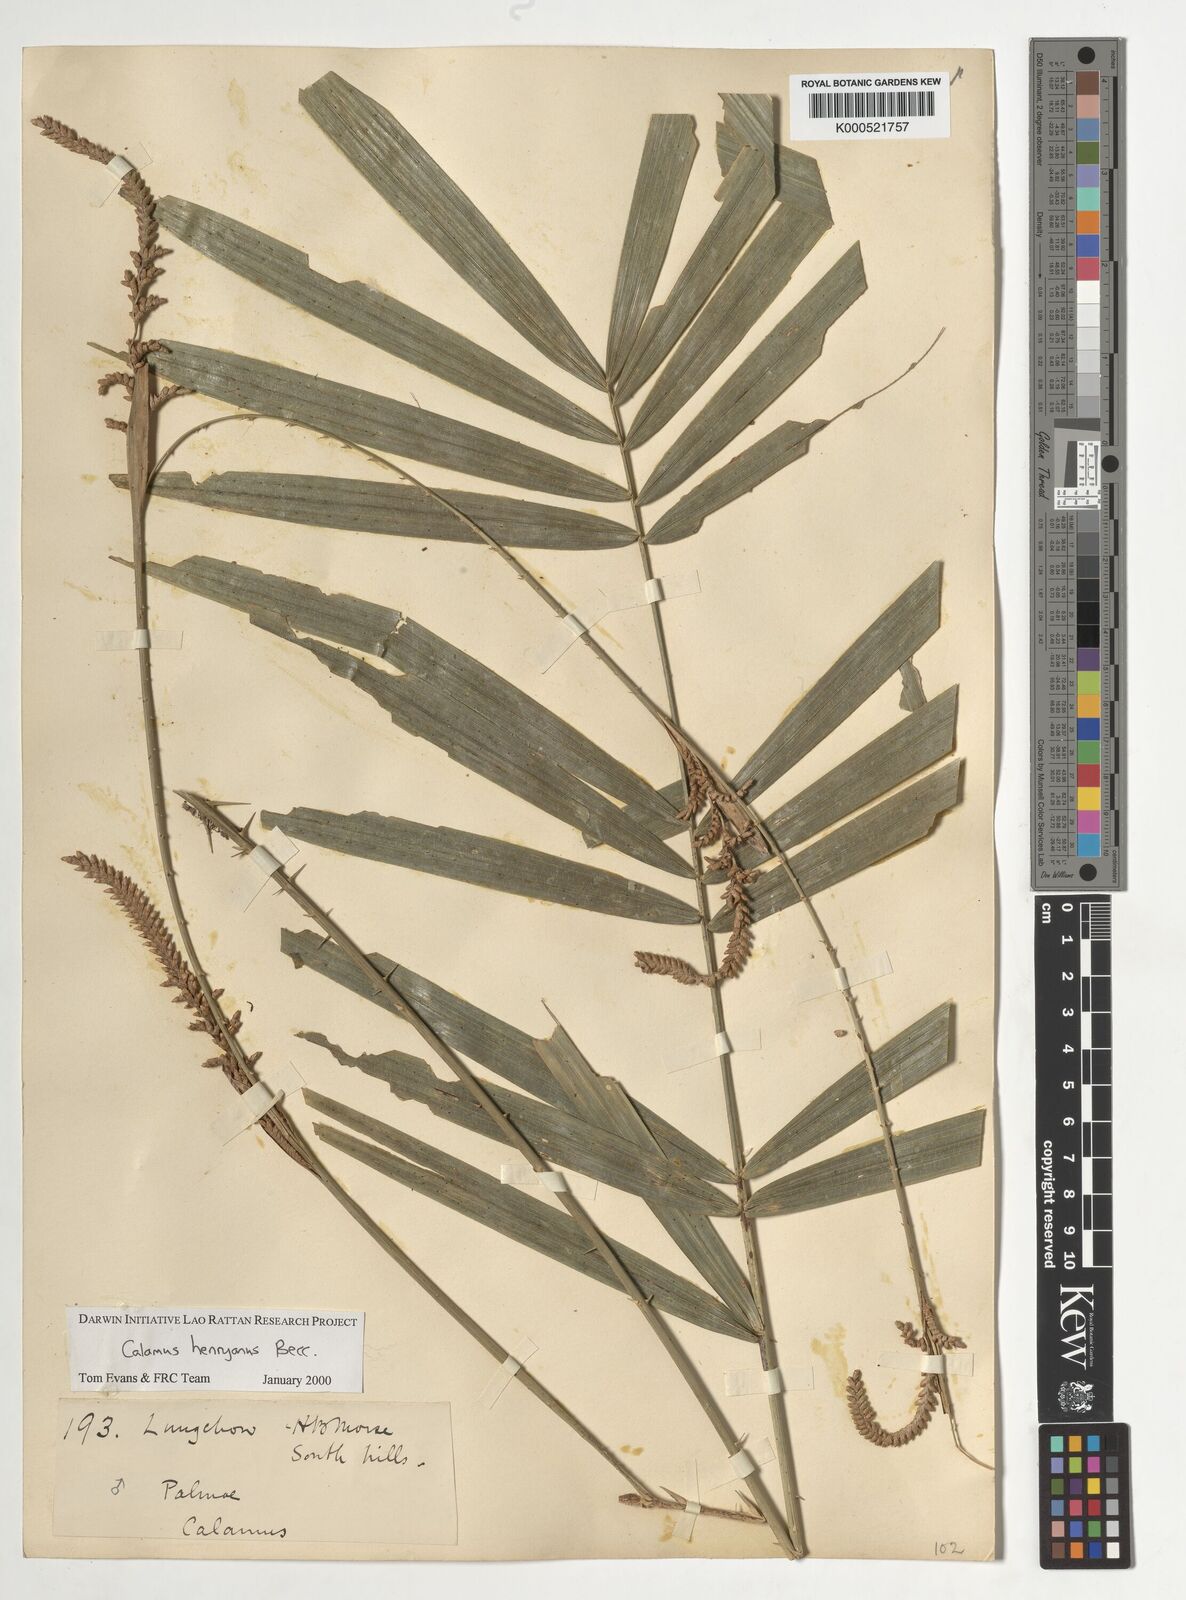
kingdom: Plantae
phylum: Tracheophyta
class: Liliopsida
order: Arecales
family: Arecaceae
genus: Calamus
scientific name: Calamus henryanus
